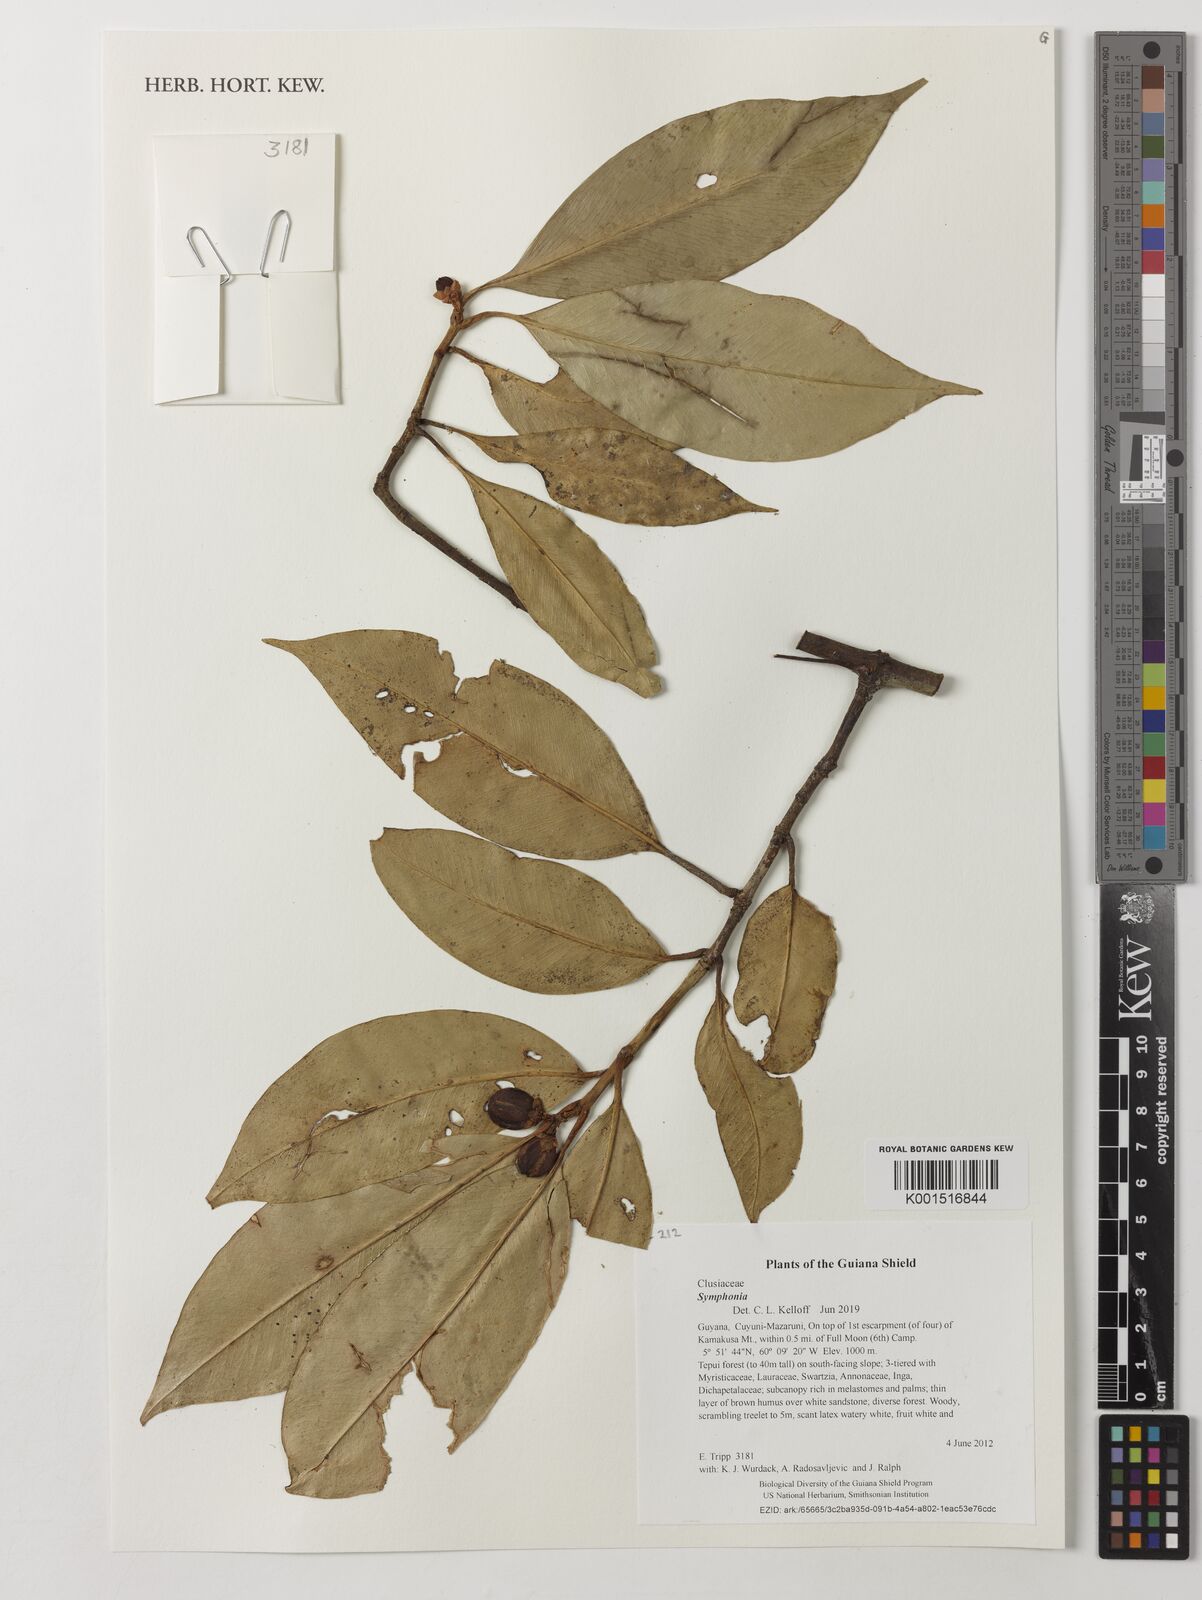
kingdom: Plantae
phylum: Tracheophyta
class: Magnoliopsida
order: Malpighiales
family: Clusiaceae
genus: Symphonia
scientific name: Symphonia
